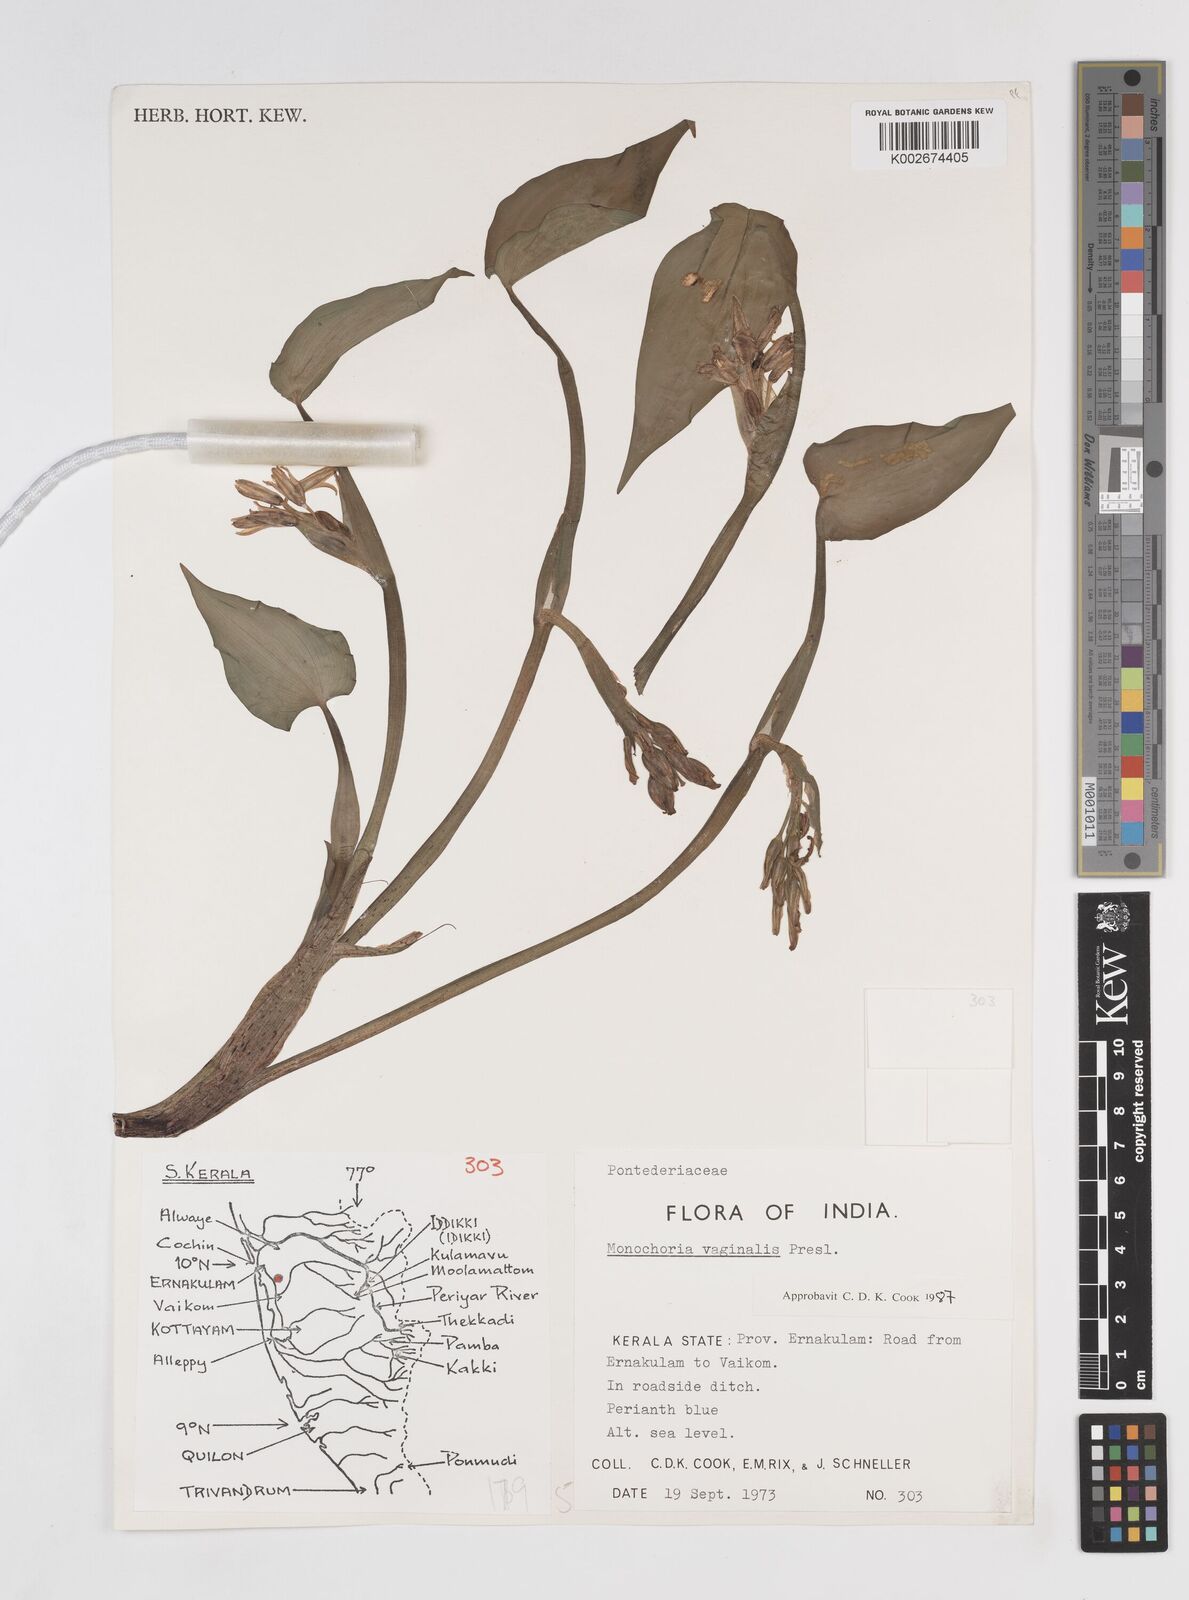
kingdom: Plantae
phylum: Tracheophyta
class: Liliopsida
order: Commelinales
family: Pontederiaceae
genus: Pontederia
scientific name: Pontederia vaginalis
